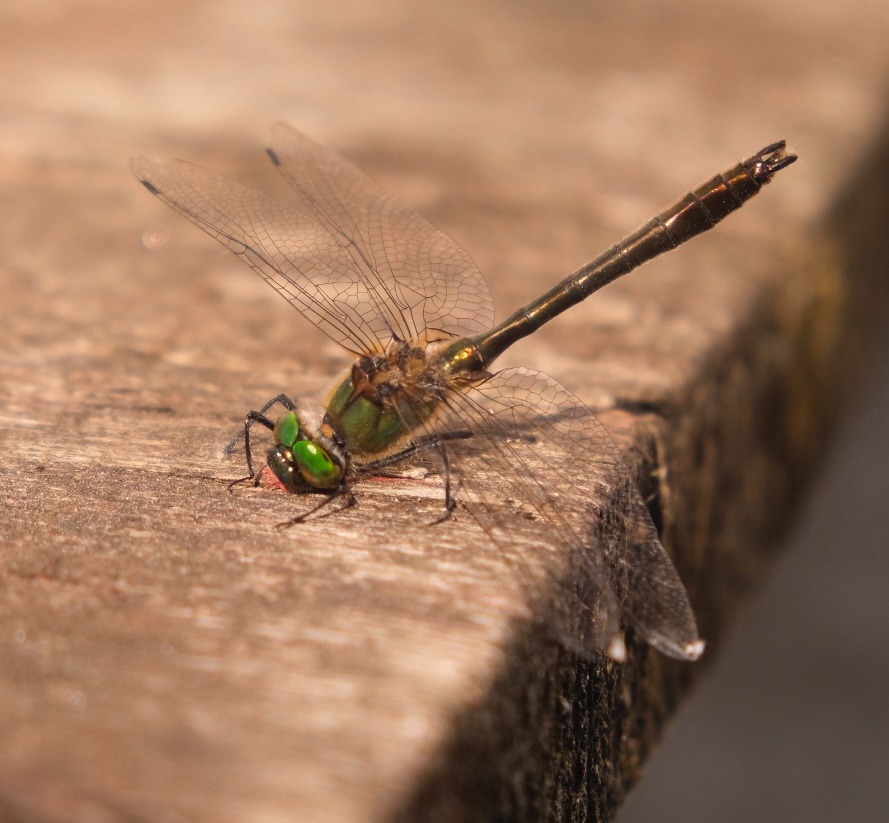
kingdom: Animalia
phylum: Arthropoda
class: Insecta
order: Odonata
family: Corduliidae
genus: Cordulia
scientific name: Cordulia aenea
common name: Grøn smaragdlibel
